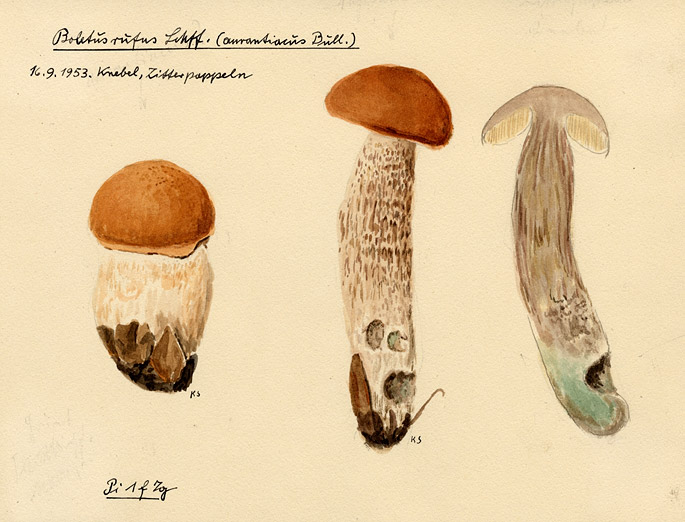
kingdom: Fungi
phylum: Basidiomycota
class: Agaricomycetes
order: Boletales
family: Boletaceae
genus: Leccinum
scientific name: Leccinum aurantiacum
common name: Orange bolete
